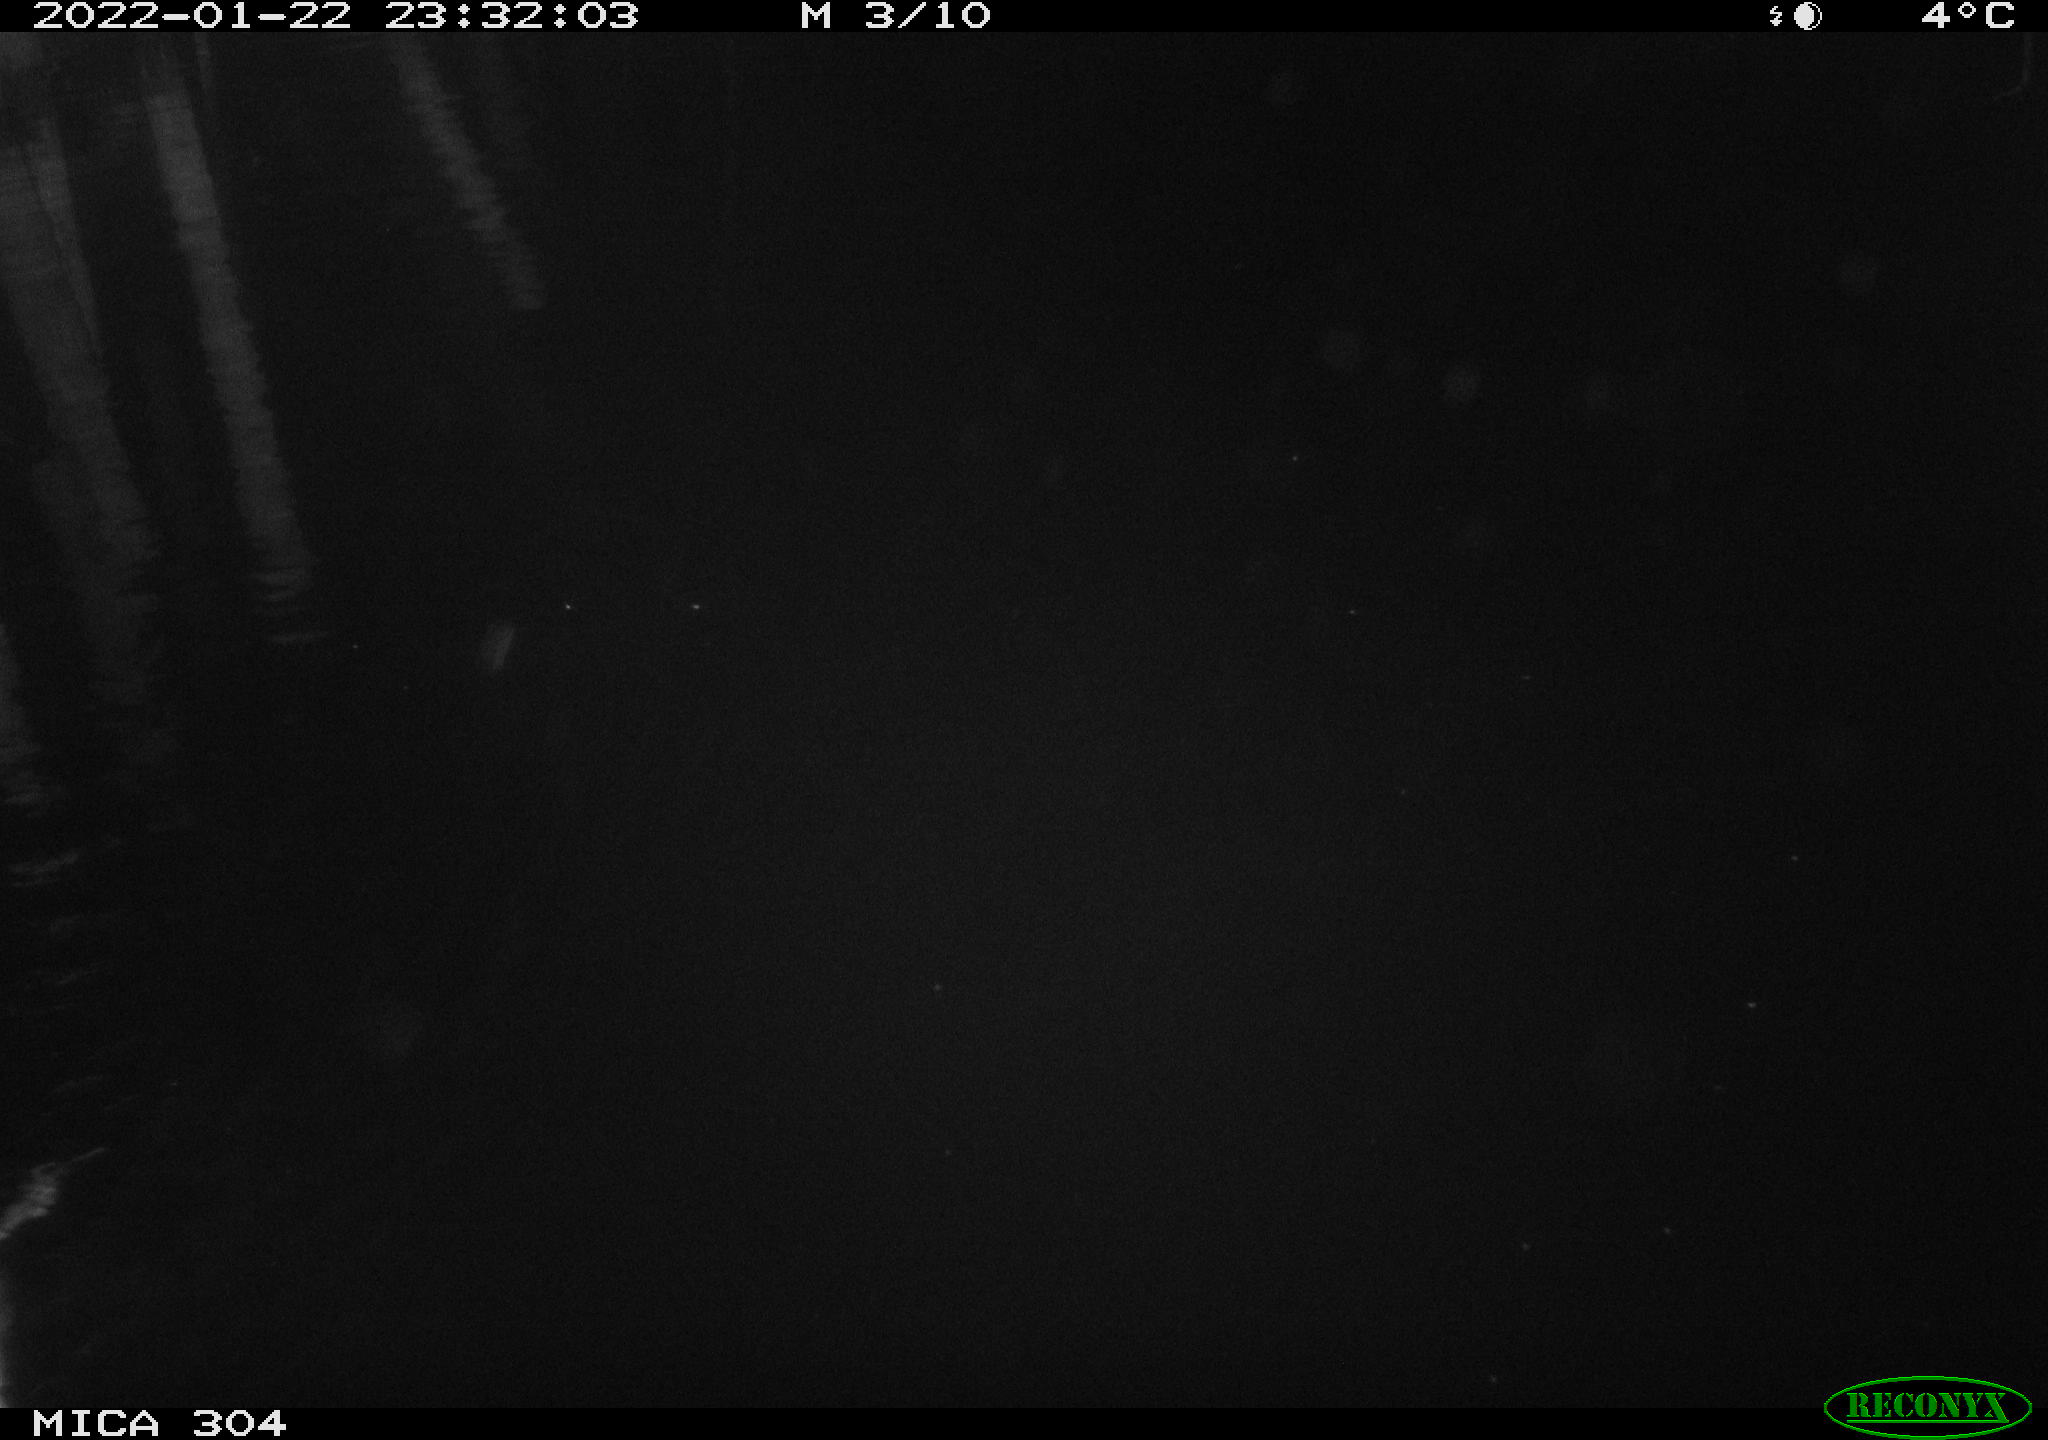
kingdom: Animalia
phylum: Chordata
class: Mammalia
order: Rodentia
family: Muridae
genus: Rattus
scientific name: Rattus norvegicus
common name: Brown rat
